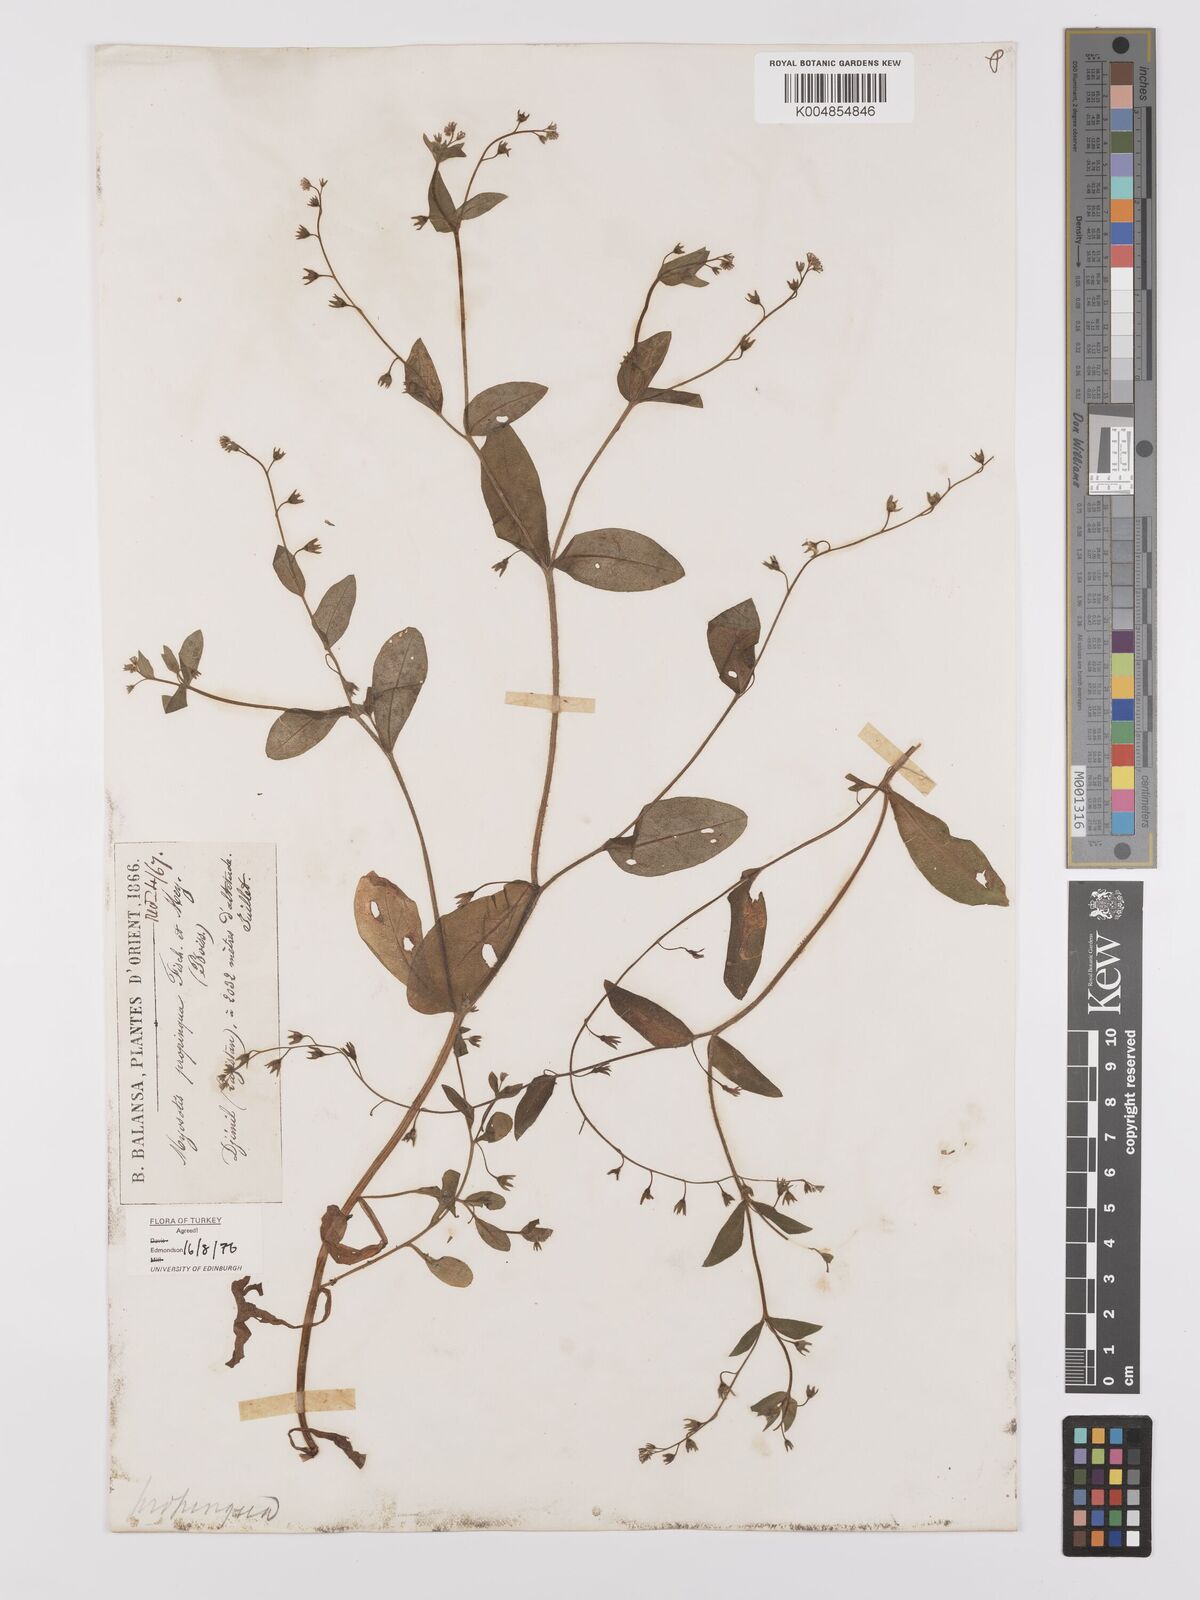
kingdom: Plantae
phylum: Tracheophyta
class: Magnoliopsida
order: Boraginales
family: Boraginaceae
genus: Myosotis
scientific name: Myosotis propinqua
